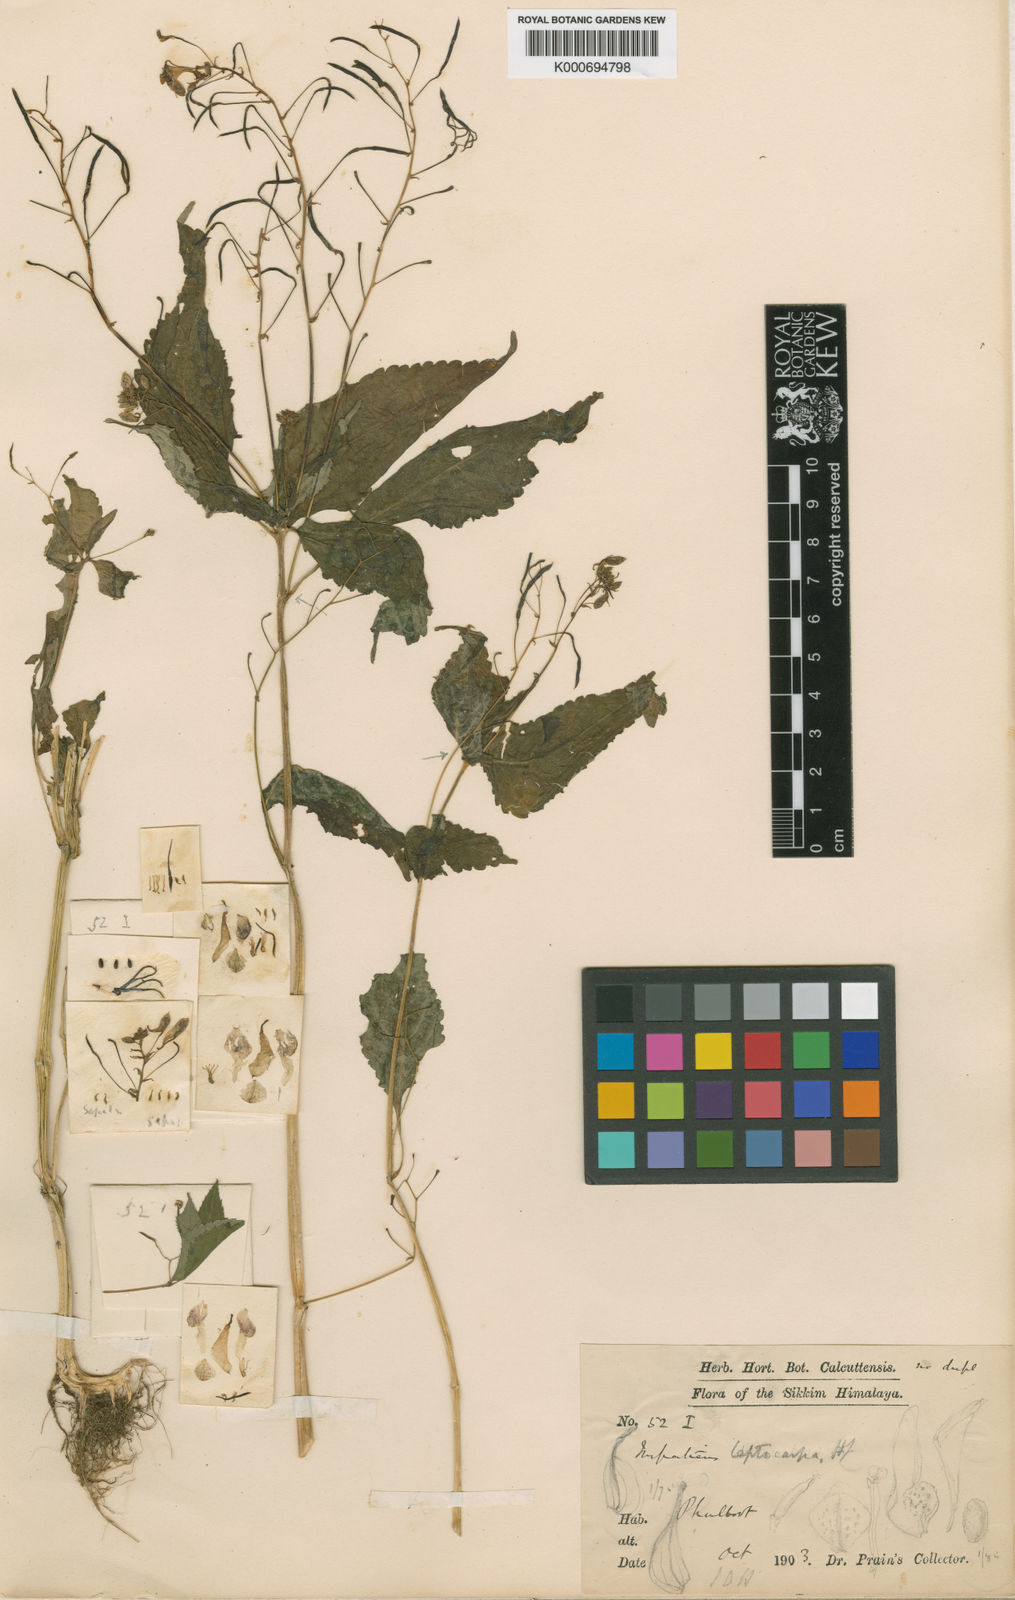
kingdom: Plantae
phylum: Tracheophyta
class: Magnoliopsida
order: Ericales
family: Balsaminaceae
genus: Impatiens
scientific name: Impatiens leptocarpa
